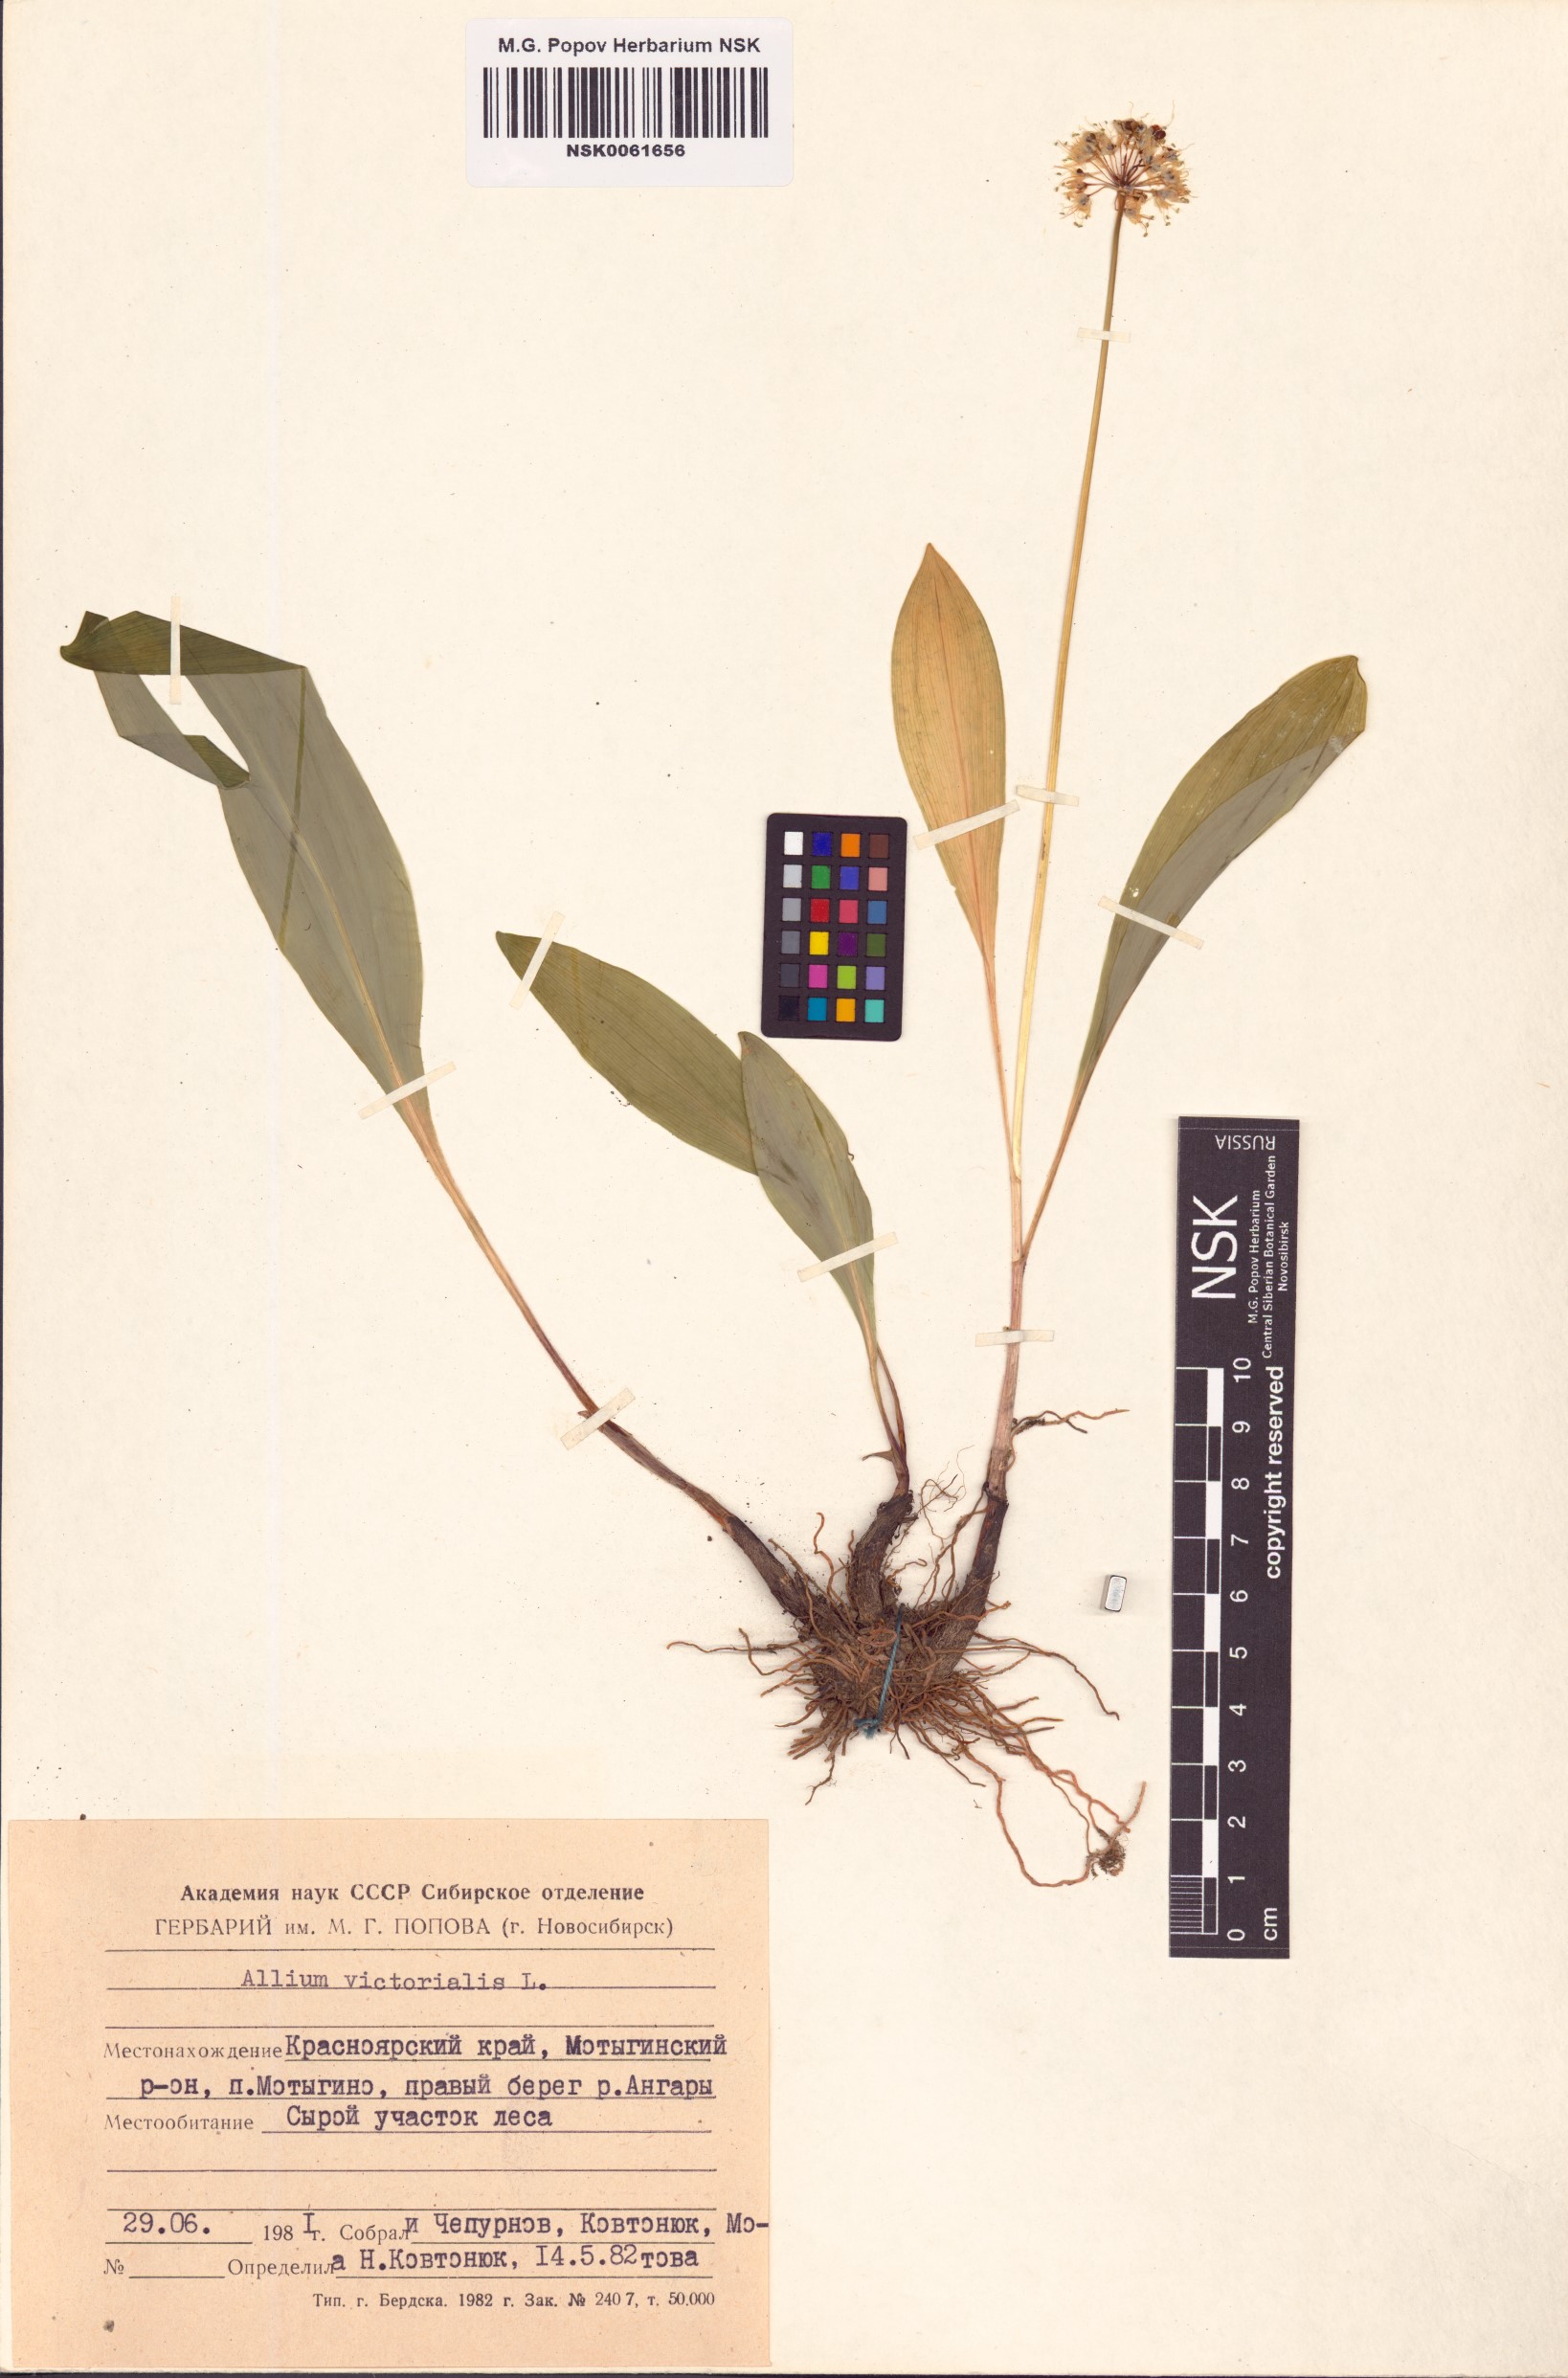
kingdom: Plantae
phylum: Tracheophyta
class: Liliopsida
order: Asparagales
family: Amaryllidaceae
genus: Allium
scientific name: Allium victorialis
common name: Alpine leek
